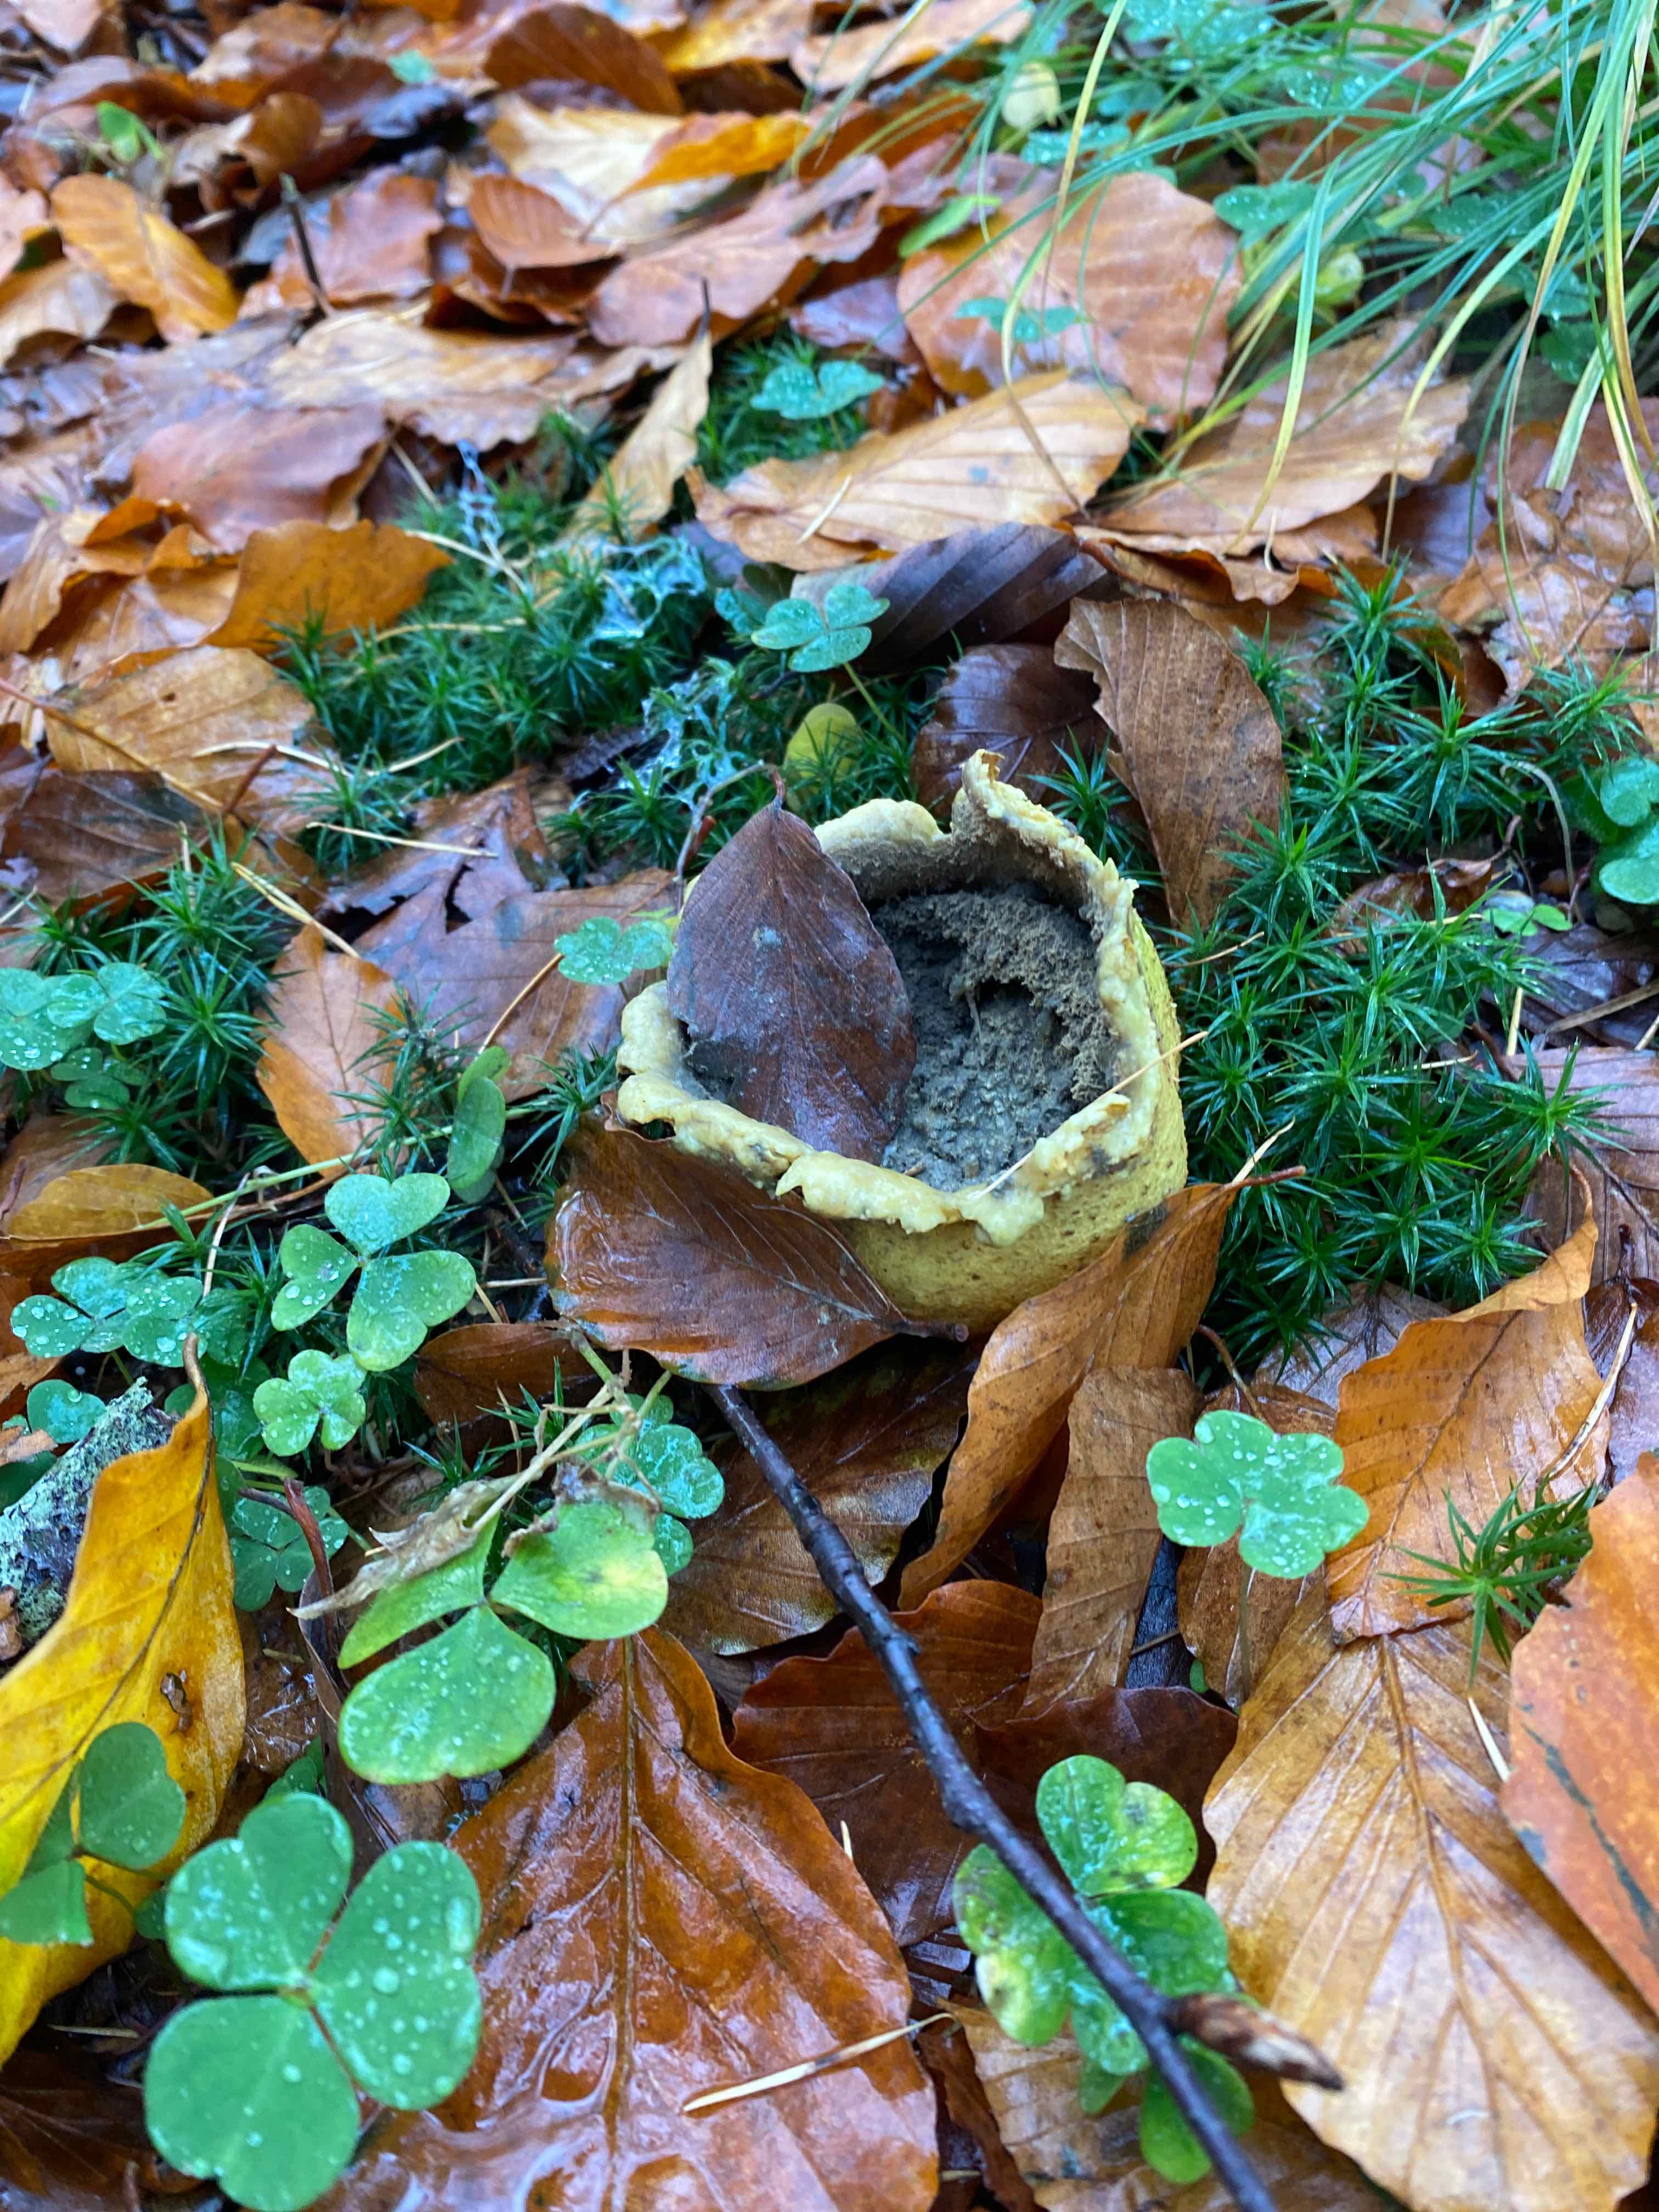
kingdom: Fungi
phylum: Basidiomycota
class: Agaricomycetes
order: Boletales
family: Sclerodermataceae
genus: Scleroderma
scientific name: Scleroderma citrinum
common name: almindelig bruskbold
